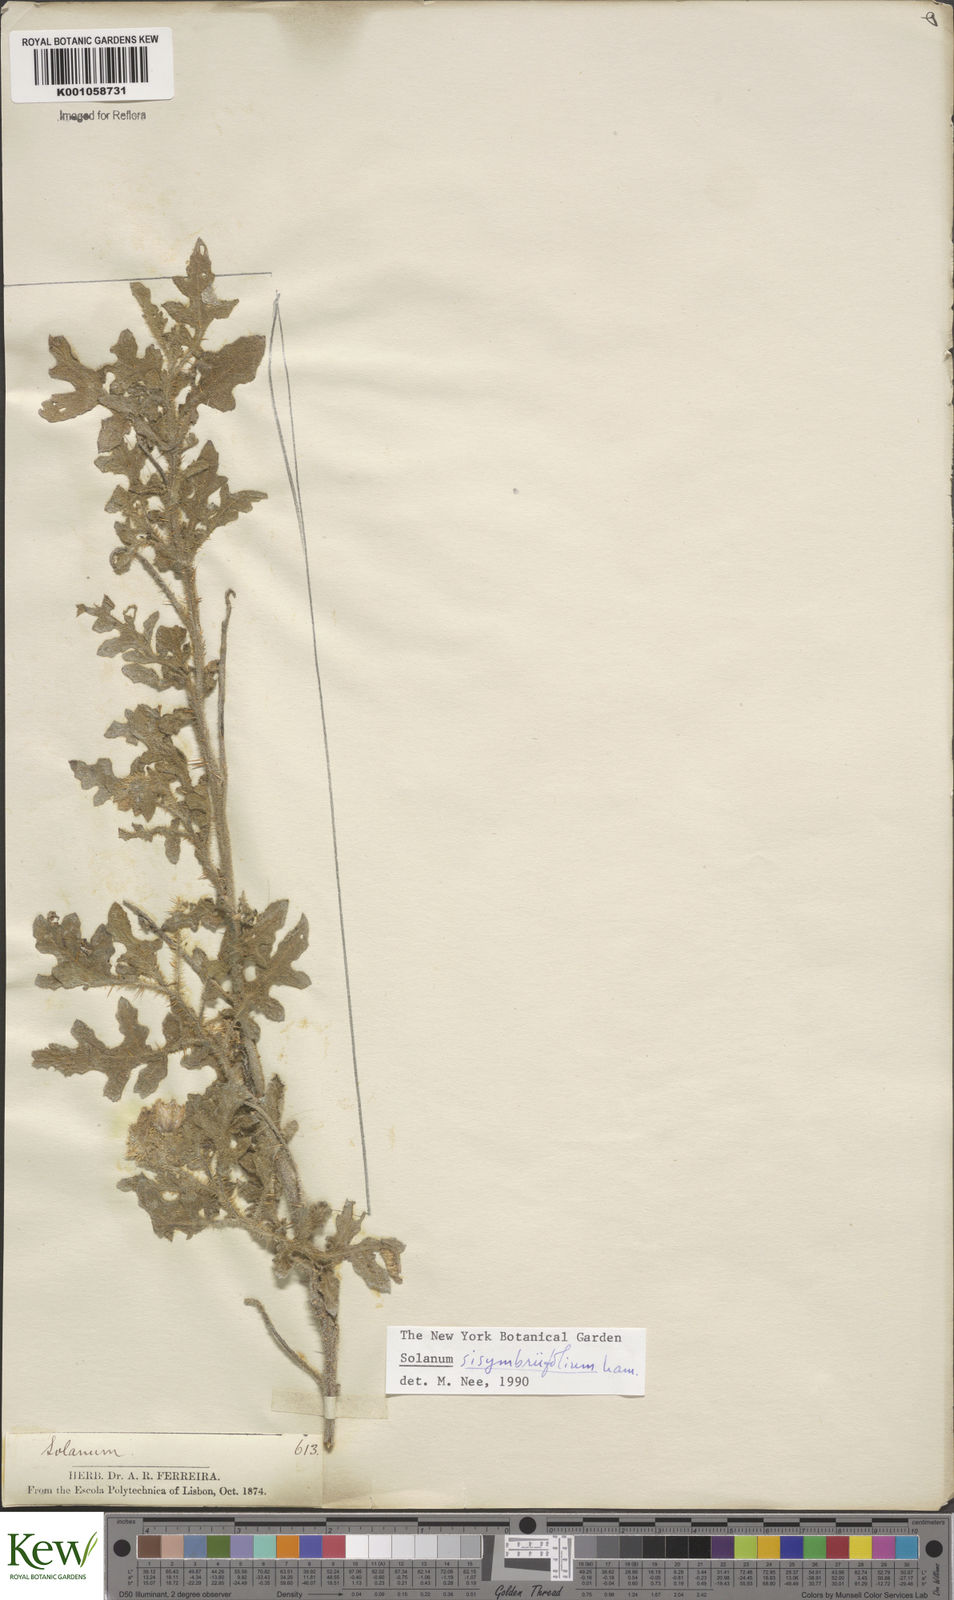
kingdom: Plantae
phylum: Tracheophyta
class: Magnoliopsida
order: Solanales
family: Solanaceae
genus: Solanum
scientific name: Solanum sisymbriifolium
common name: Red buffalo-bur
